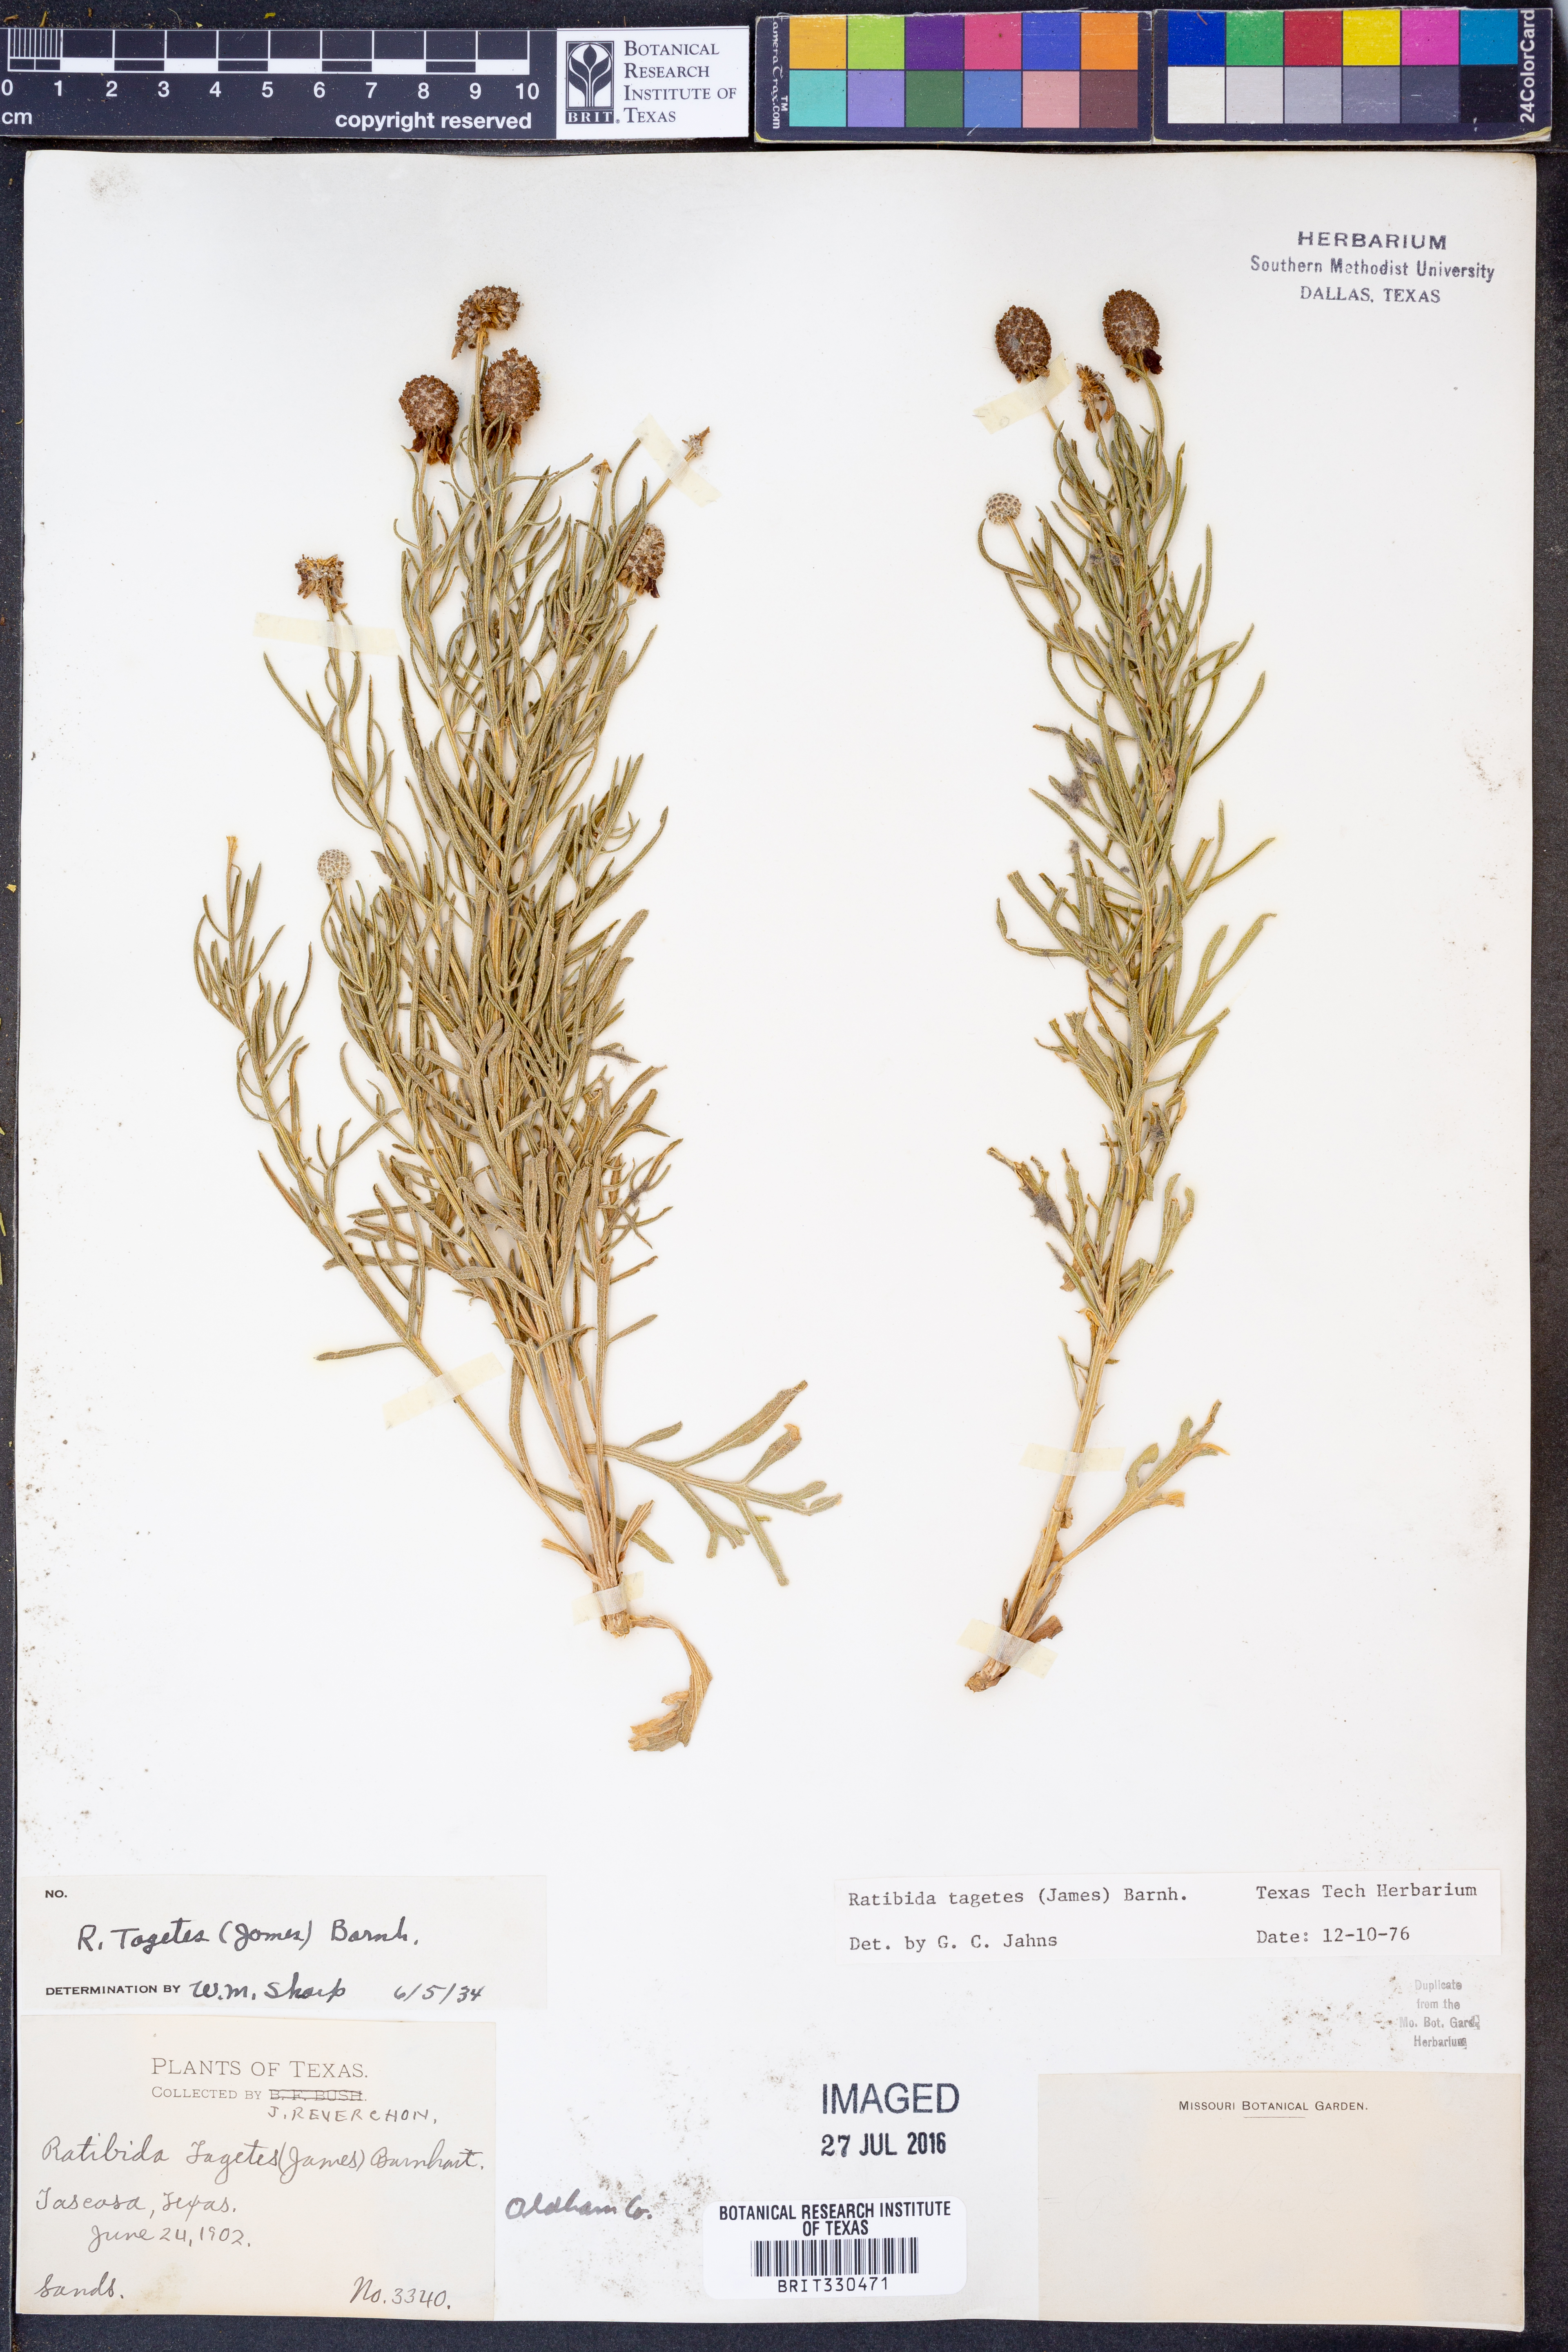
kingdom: Plantae
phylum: Tracheophyta
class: Magnoliopsida
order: Asterales
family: Asteraceae
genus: Ratibida
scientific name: Ratibida tagetes
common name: Green mexican-hat
